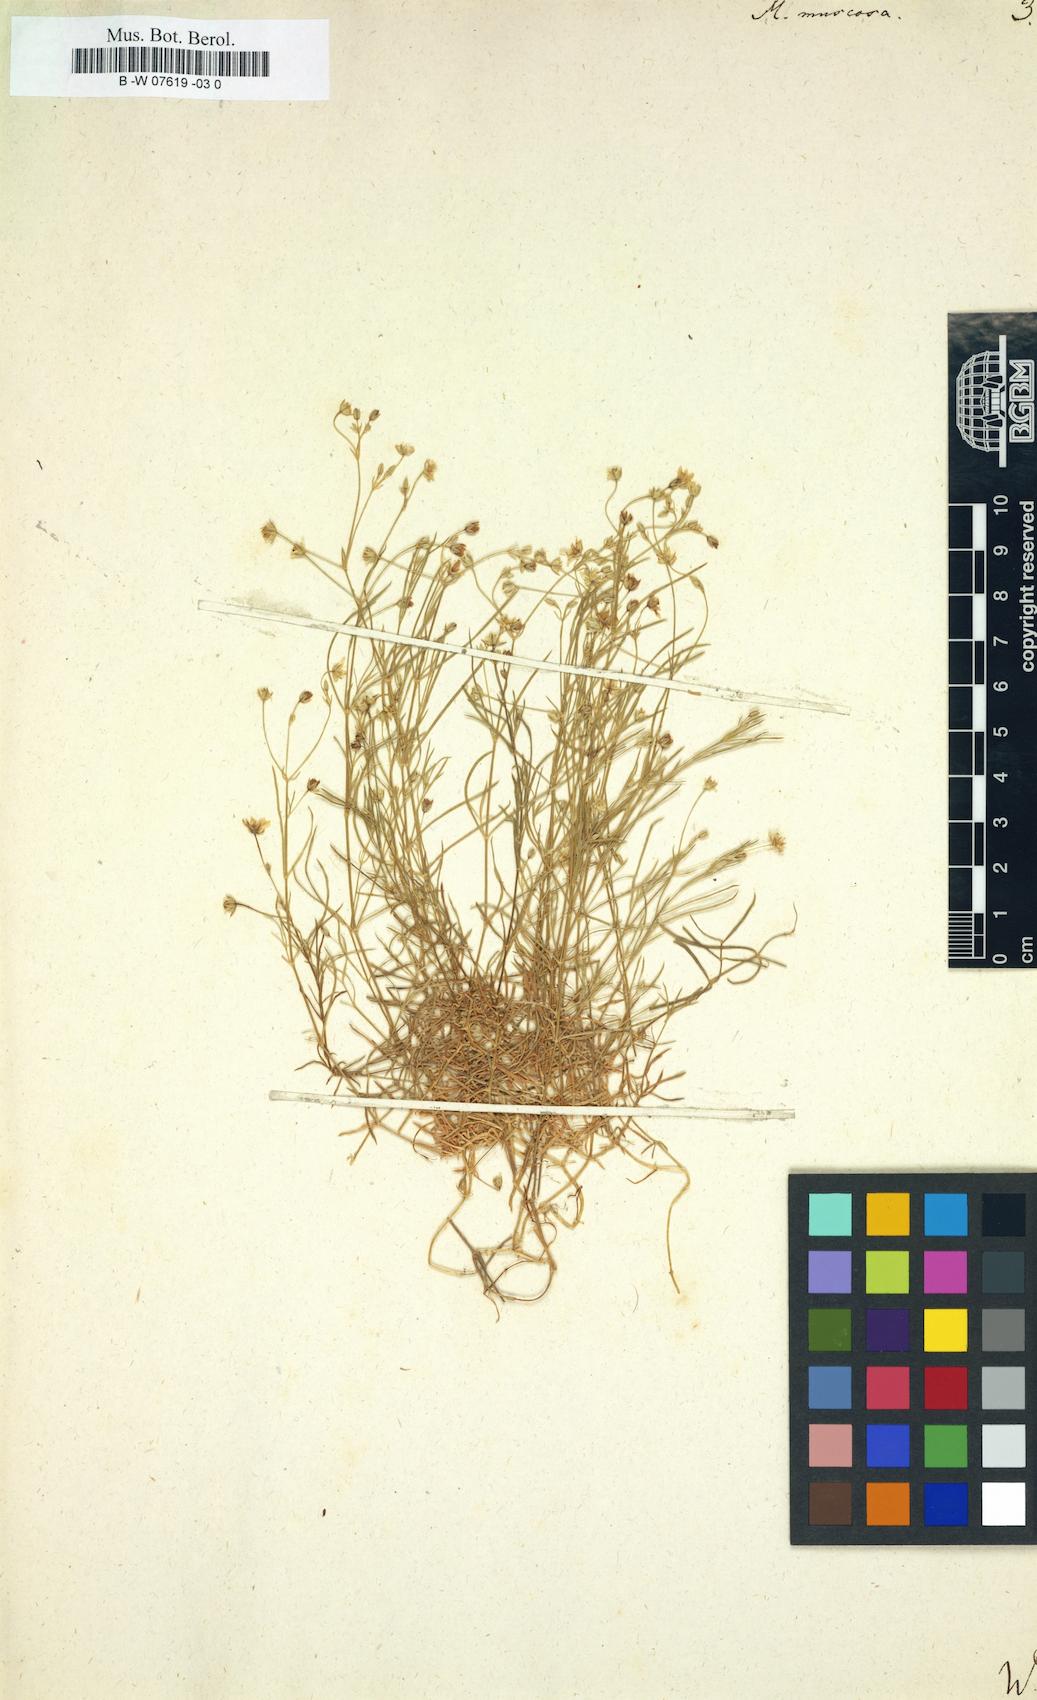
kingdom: Plantae
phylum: Tracheophyta
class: Magnoliopsida
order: Caryophyllales
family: Caryophyllaceae
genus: Moehringia
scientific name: Moehringia muscosa
